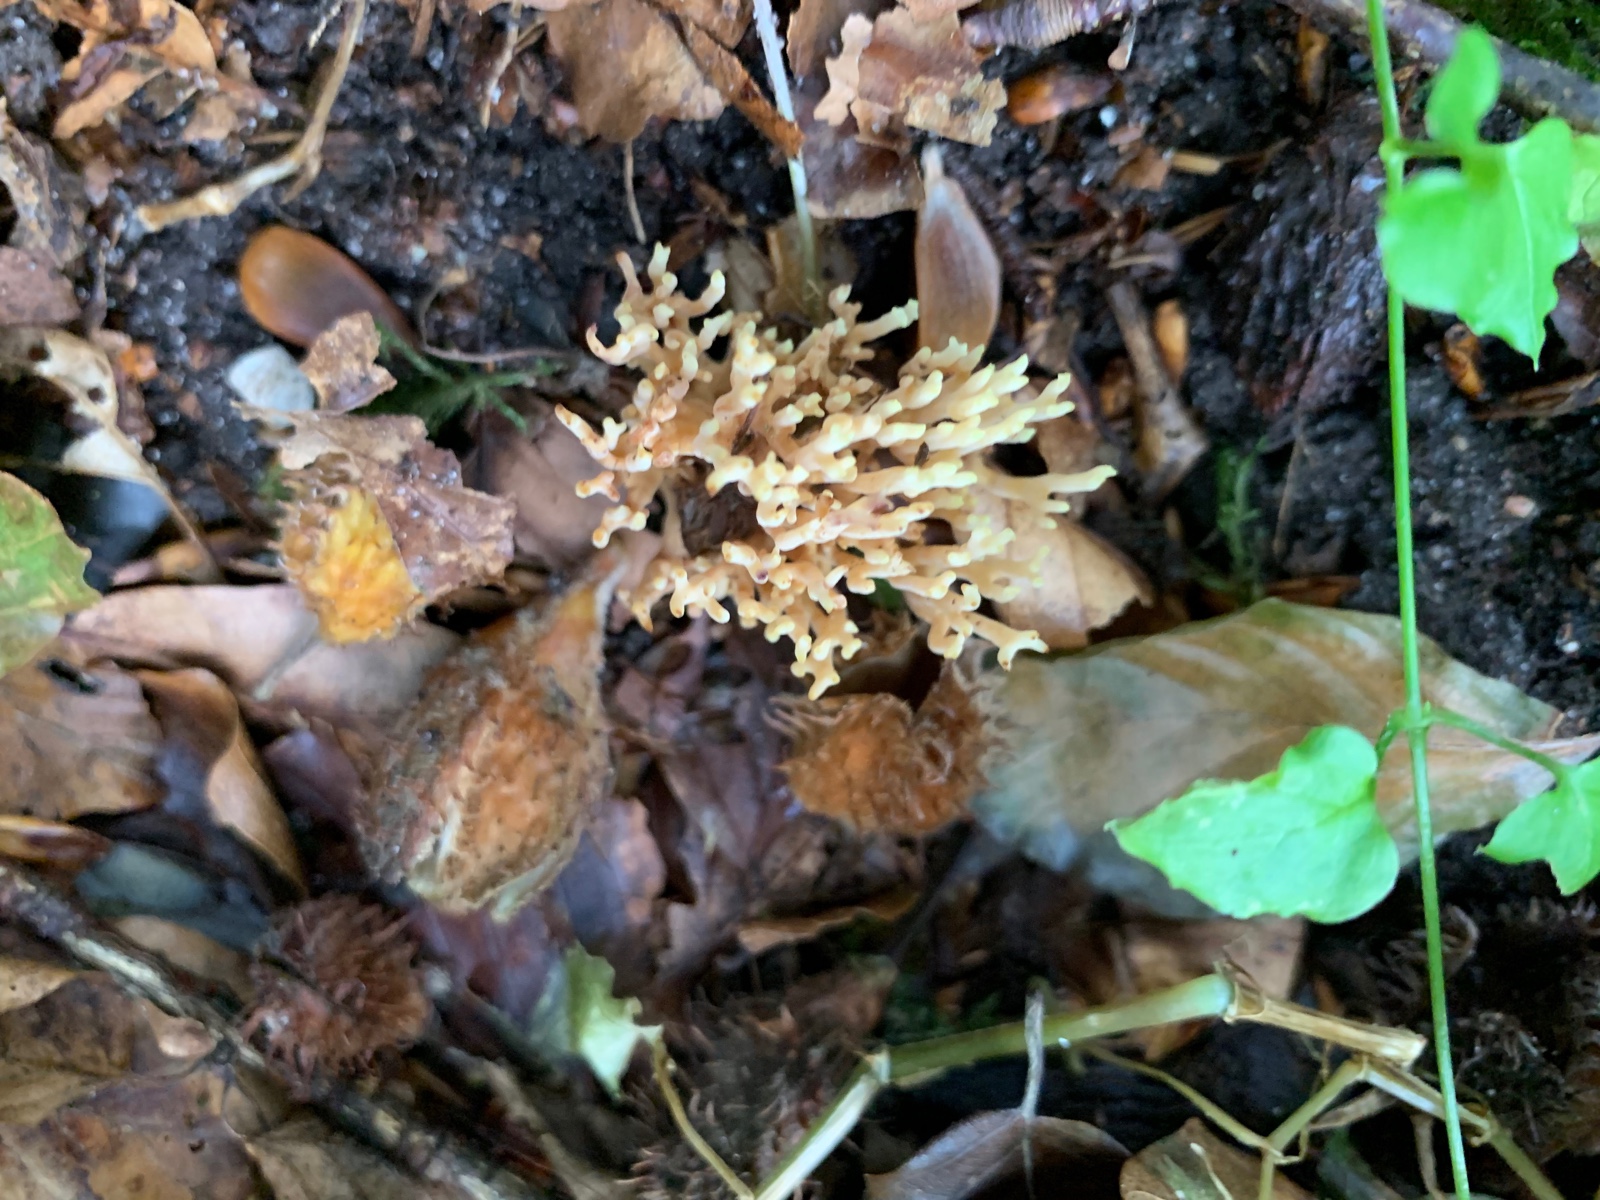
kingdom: Fungi
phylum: Basidiomycota
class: Agaricomycetes
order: Gomphales
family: Gomphaceae
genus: Ramaria
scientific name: Ramaria stricta
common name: rank koralsvamp
